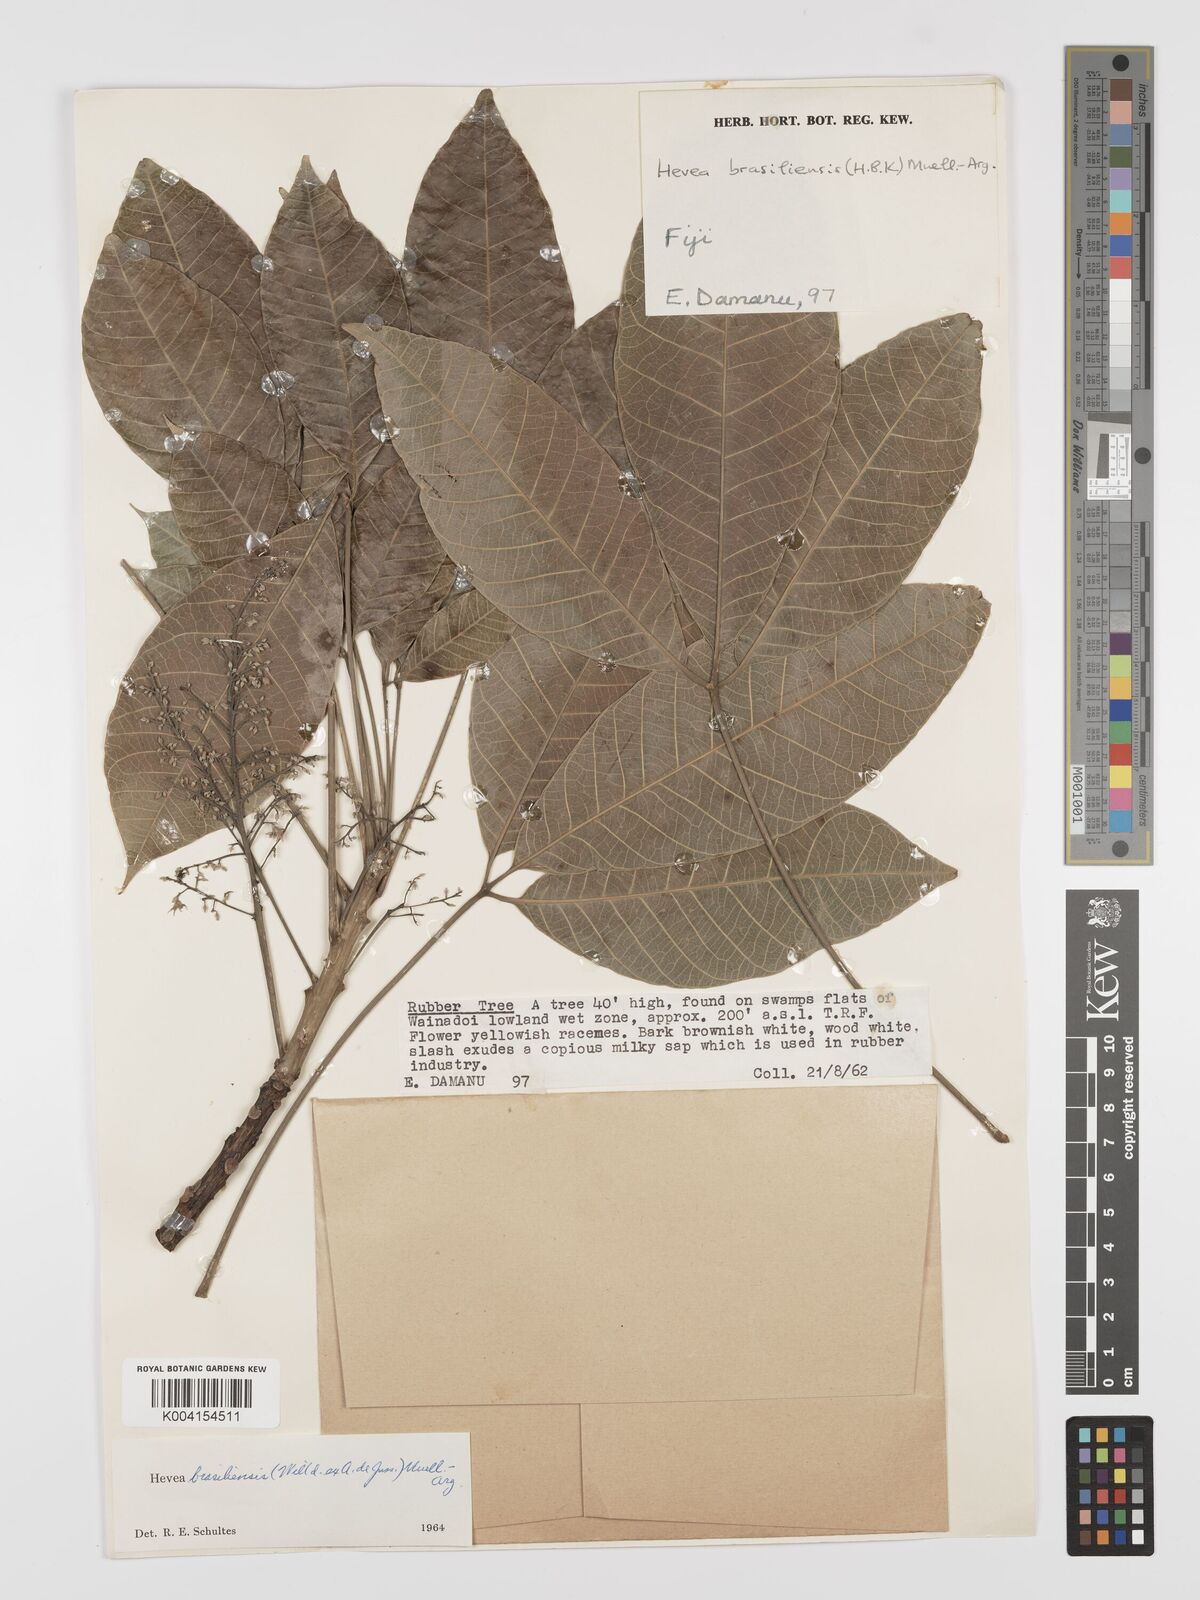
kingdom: Plantae
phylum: Tracheophyta
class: Magnoliopsida
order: Malpighiales
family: Euphorbiaceae
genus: Hevea
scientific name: Hevea brasiliensis
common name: Natural rubber
